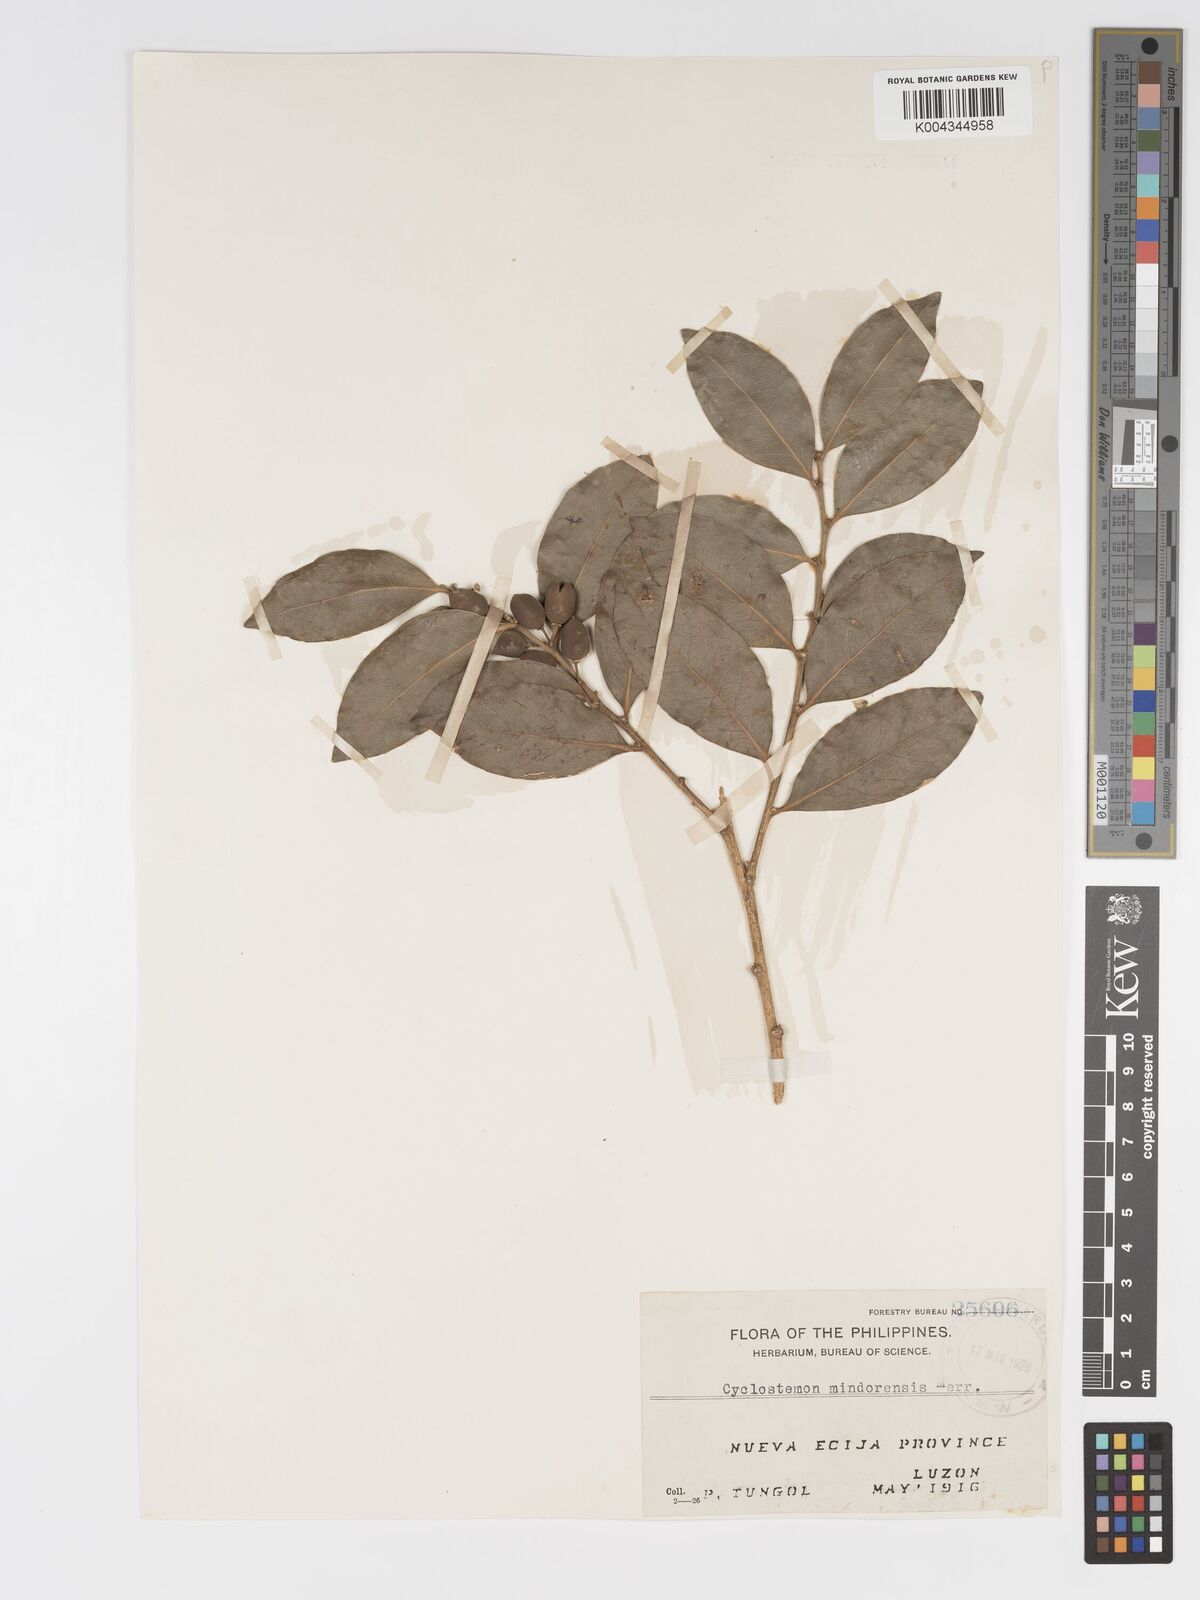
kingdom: Plantae
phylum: Tracheophyta
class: Magnoliopsida
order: Malpighiales
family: Putranjivaceae
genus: Drypetes
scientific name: Drypetes littoralis
